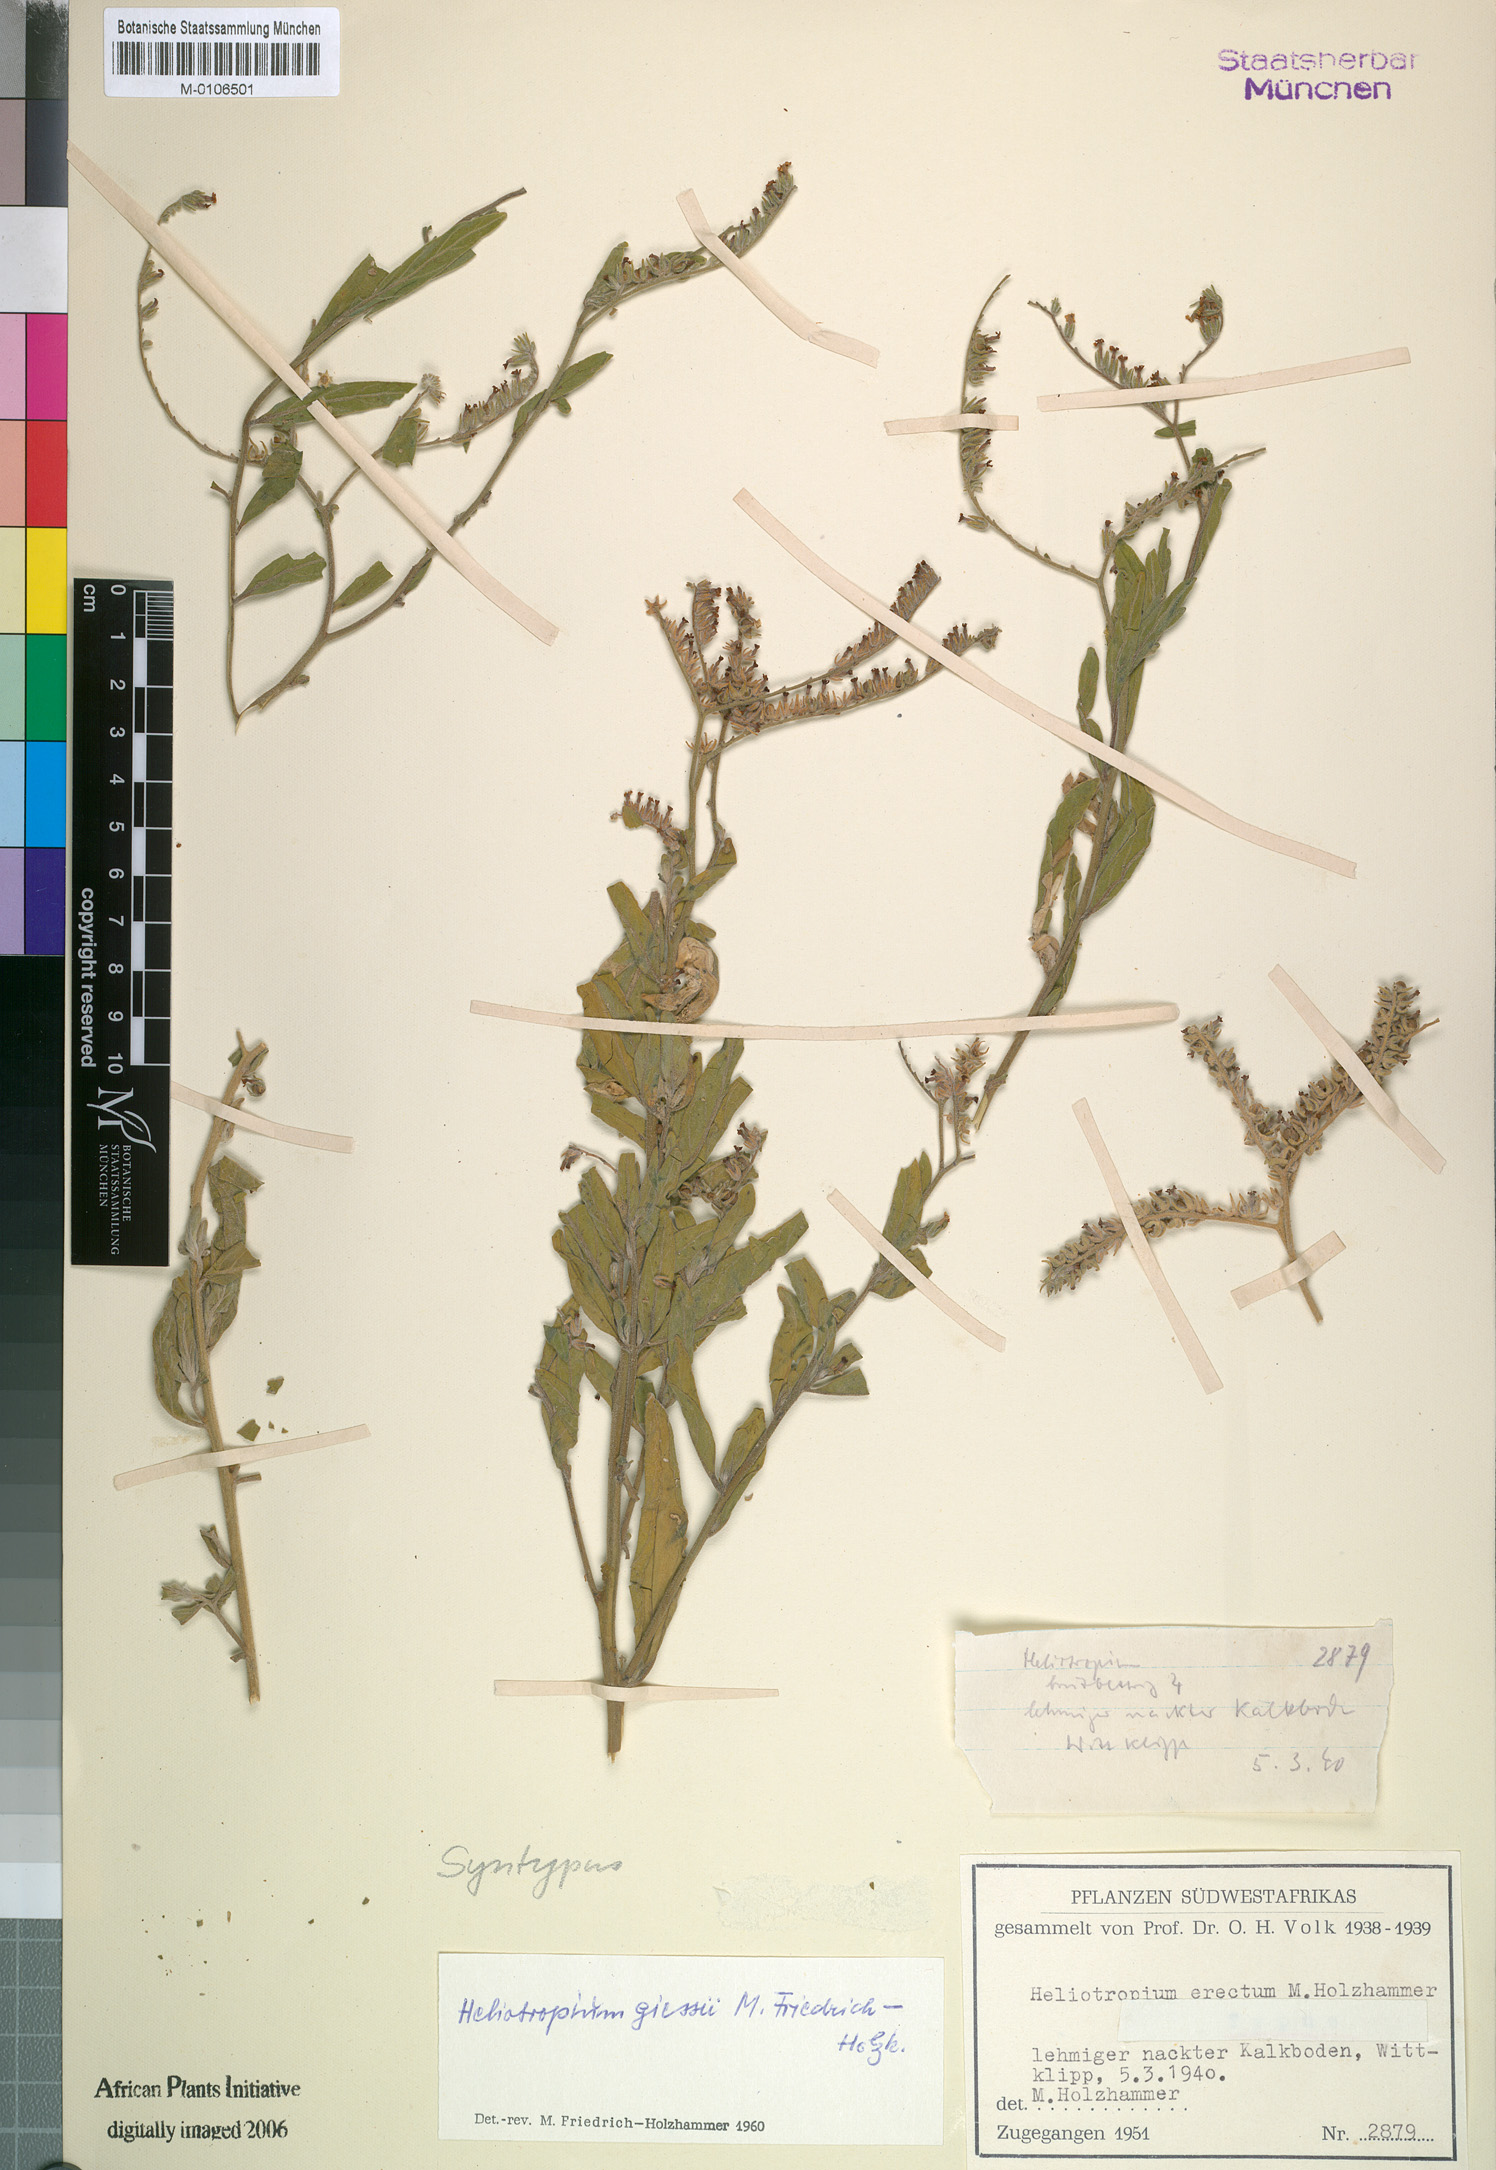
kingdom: Plantae
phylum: Tracheophyta
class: Magnoliopsida
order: Boraginales
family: Heliotropiaceae
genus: Heliotropium
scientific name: Heliotropium giessii
